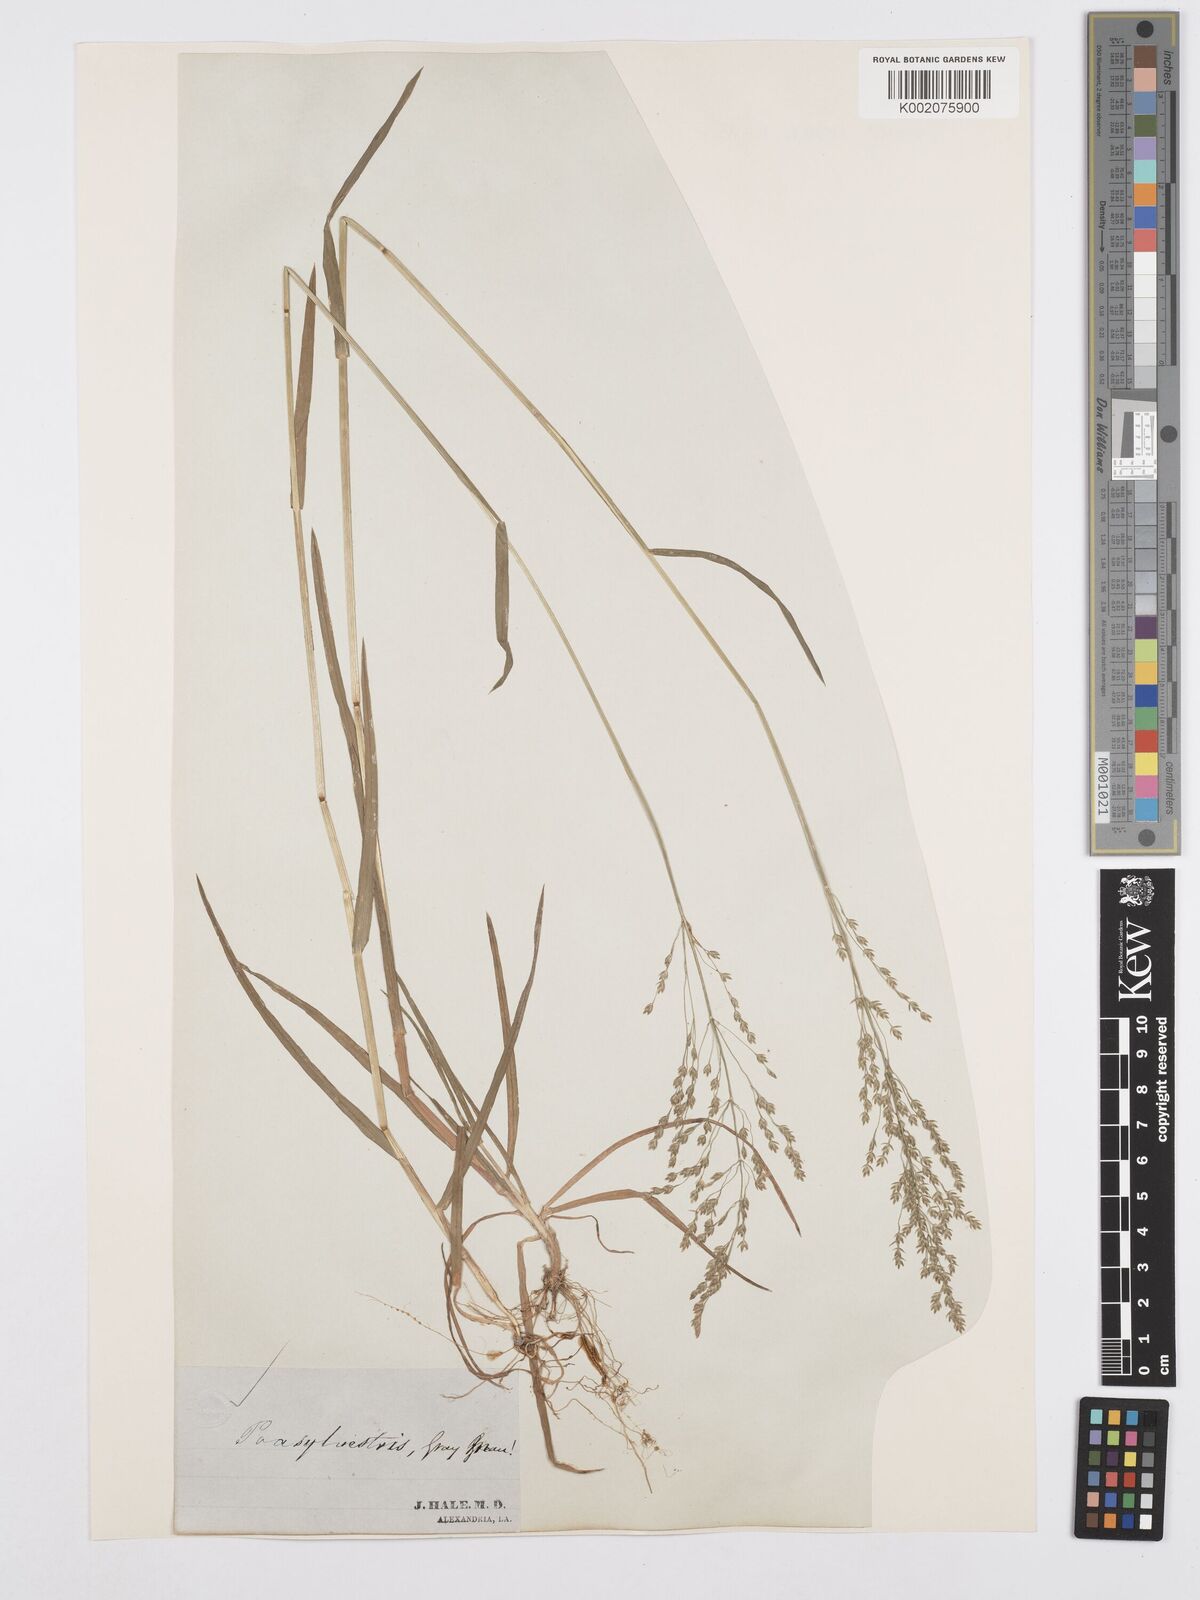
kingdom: Plantae
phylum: Tracheophyta
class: Liliopsida
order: Poales
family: Poaceae
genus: Poa
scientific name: Poa sylvestris
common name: North american woodland bluegrass
